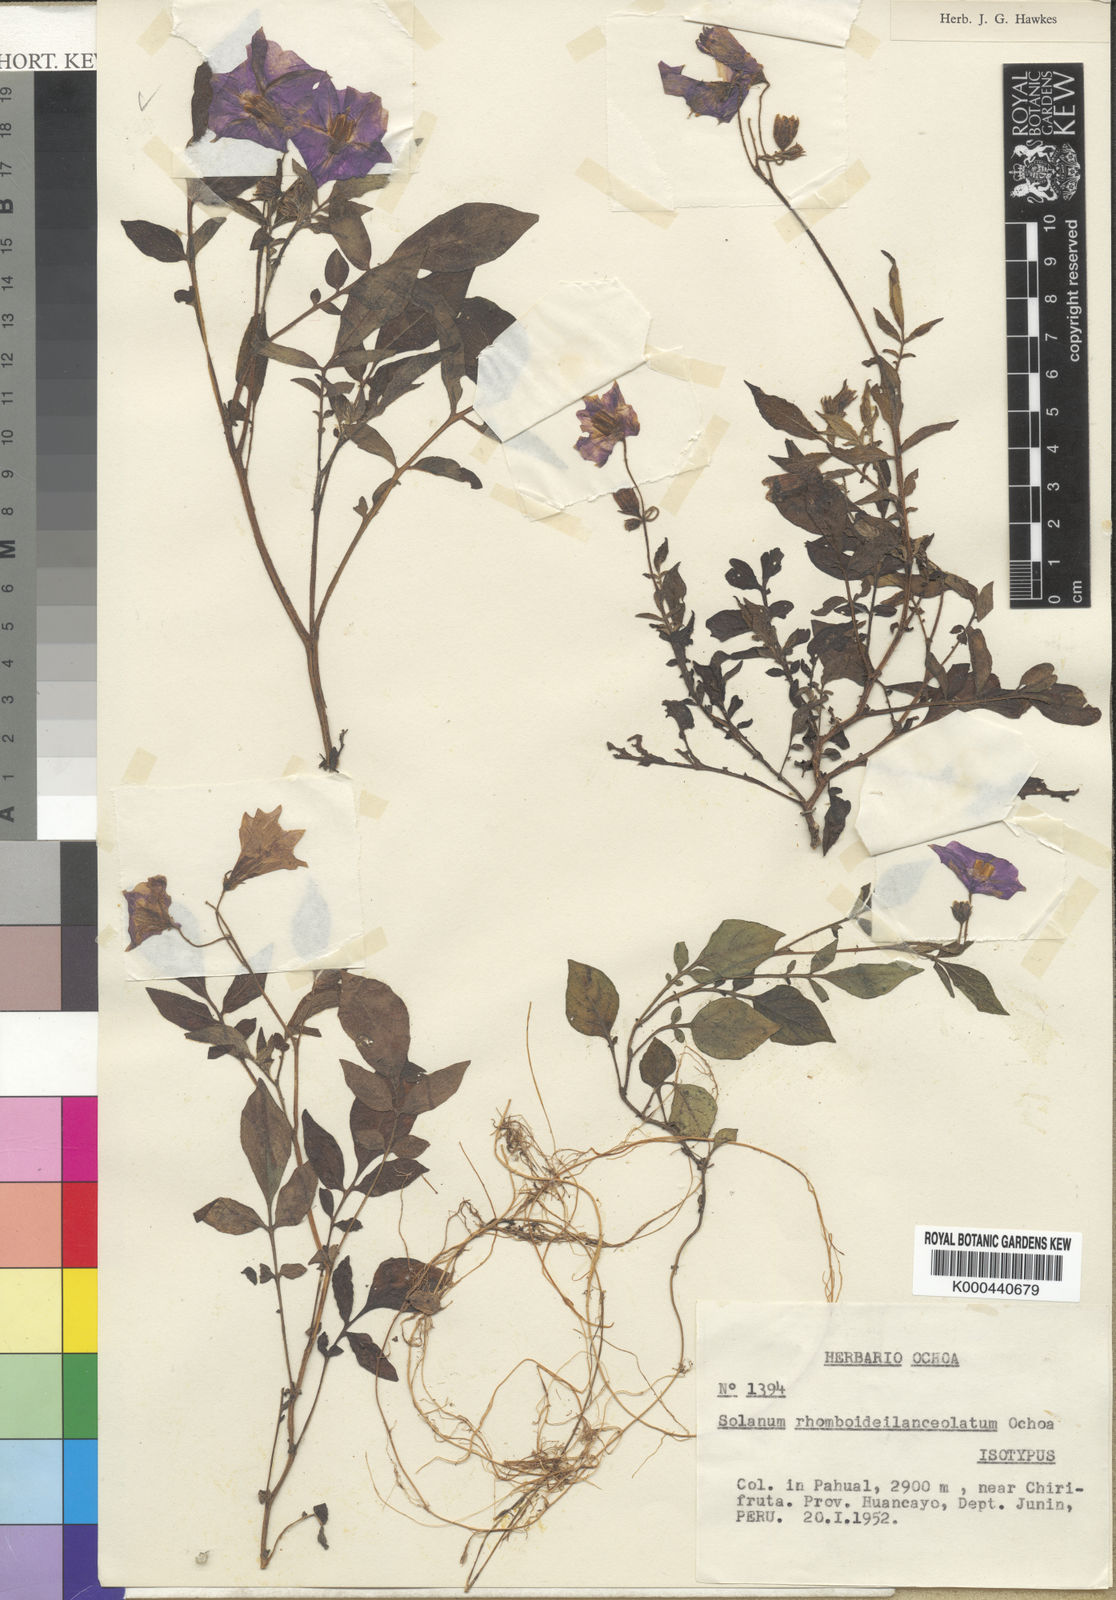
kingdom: Plantae
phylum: Tracheophyta
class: Magnoliopsida
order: Solanales
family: Solanaceae
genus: Solanum
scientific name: Solanum rhomboideilanceolatum
